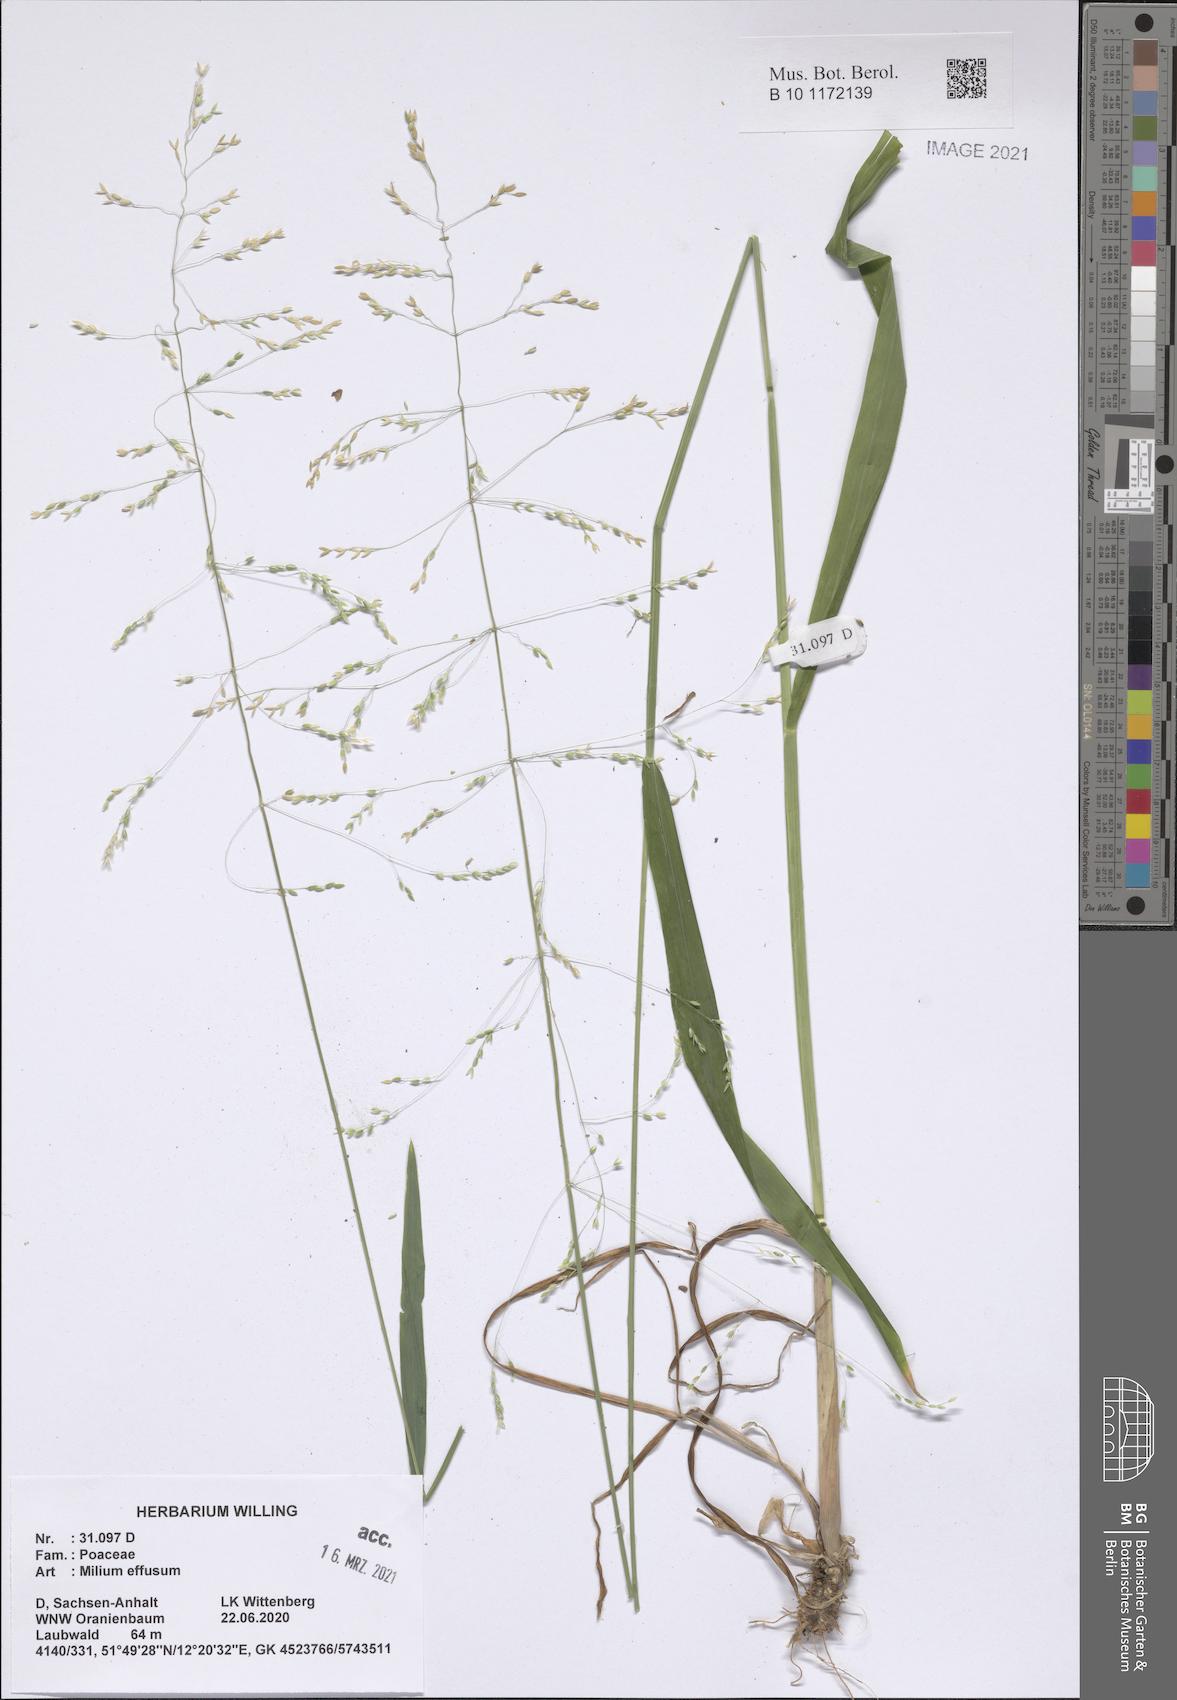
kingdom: Plantae
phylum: Tracheophyta
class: Liliopsida
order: Poales
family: Poaceae
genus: Milium
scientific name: Milium effusum
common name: Wood millet
